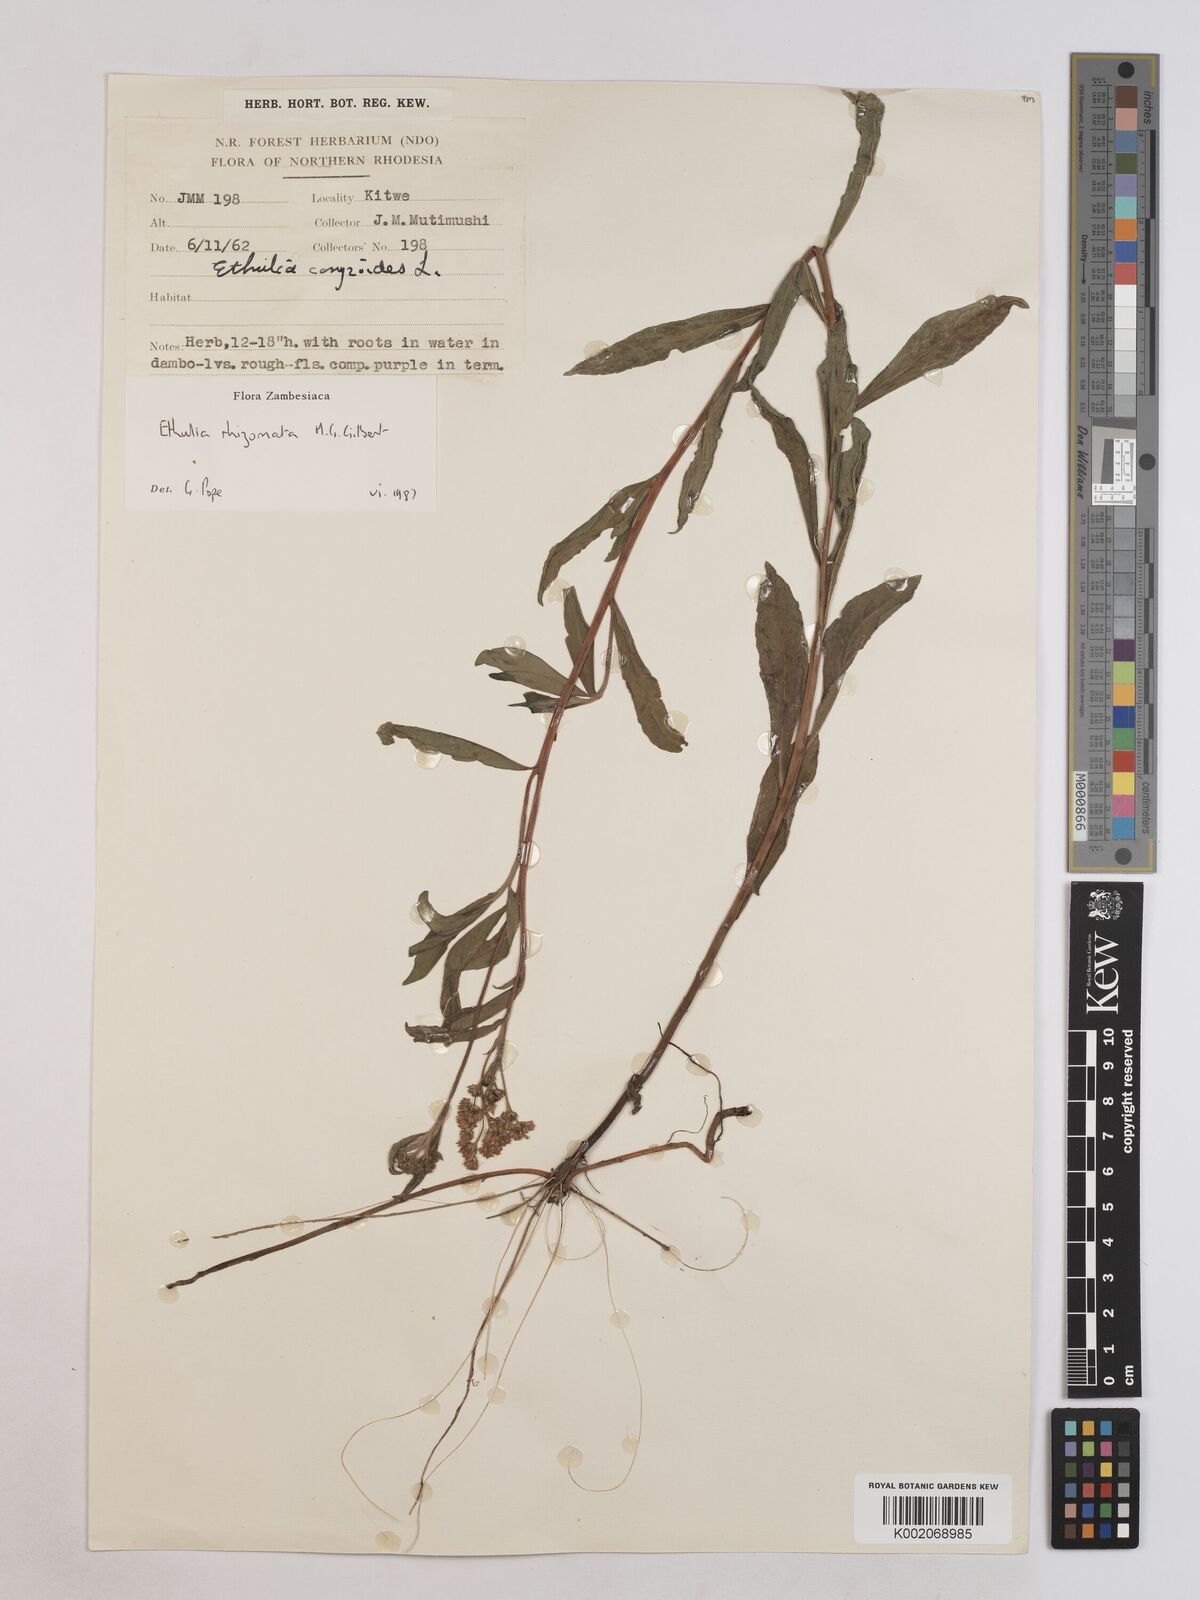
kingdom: Plantae
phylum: Tracheophyta
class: Magnoliopsida
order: Asterales
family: Asteraceae
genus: Ethulia
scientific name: Ethulia rhizomata
